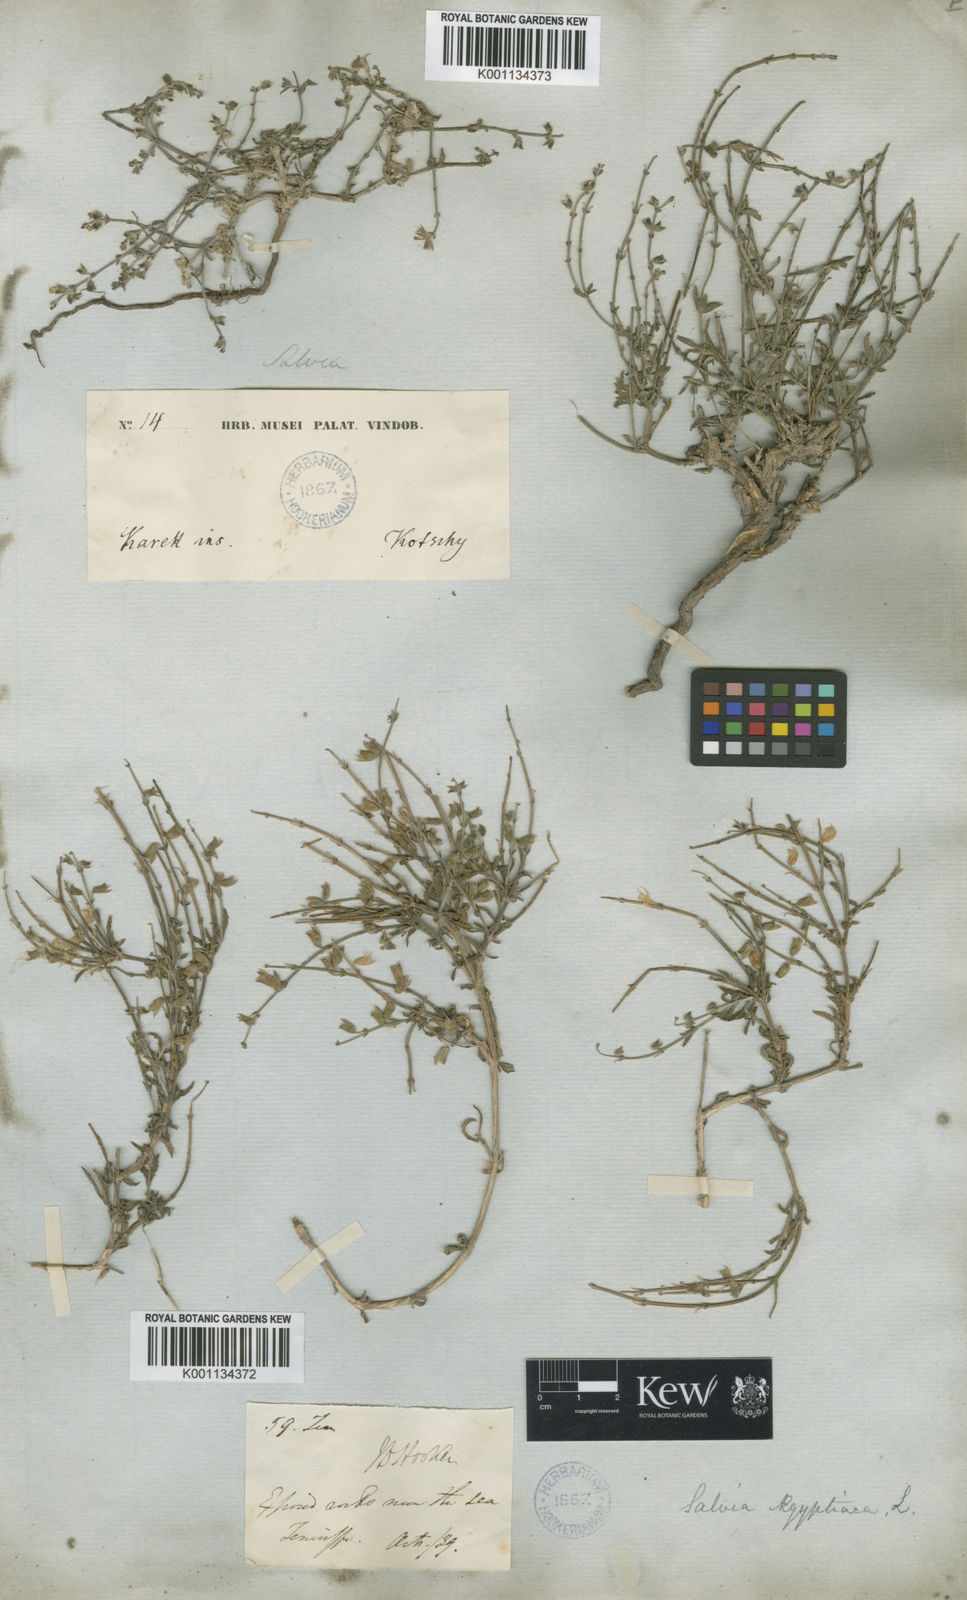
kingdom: Plantae
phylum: Tracheophyta
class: Magnoliopsida
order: Lamiales
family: Lamiaceae
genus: Salvia
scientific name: Salvia aegyptiaca
